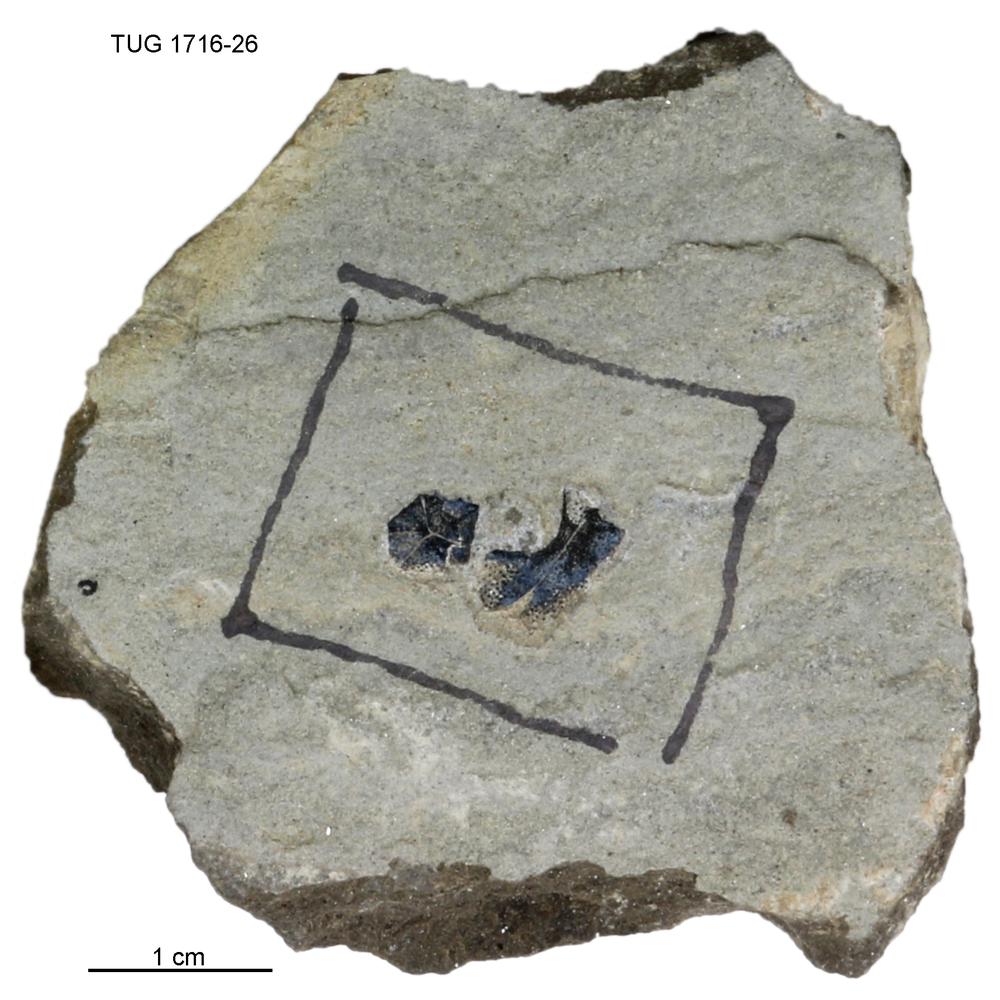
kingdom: Animalia
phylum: Chordata
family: Coccosteidae
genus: Millerosteus
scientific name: Millerosteus minor
